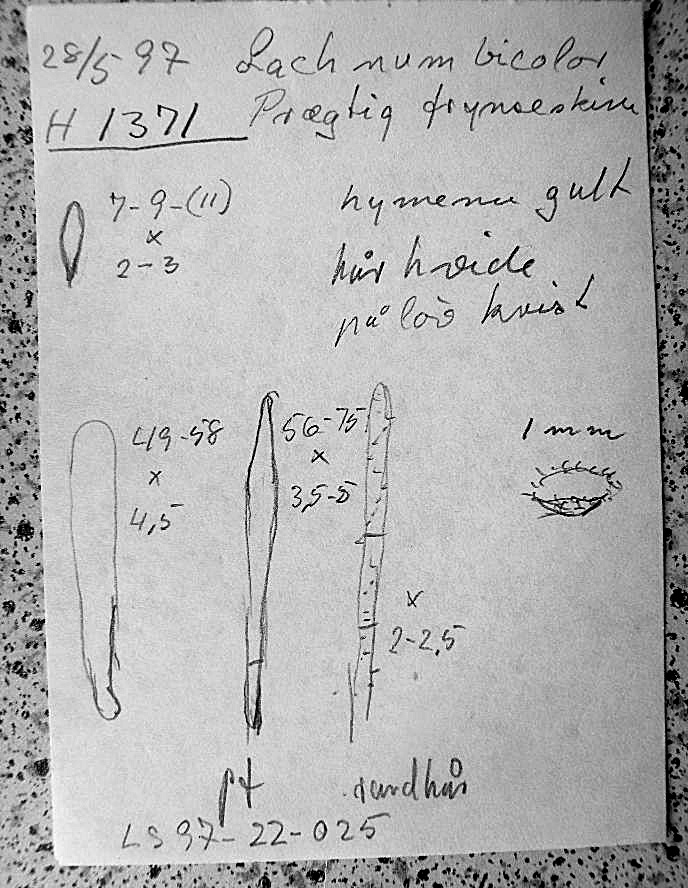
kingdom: Fungi
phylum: Ascomycota
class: Leotiomycetes
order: Helotiales
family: Lachnaceae
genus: Capitotricha
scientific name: Capitotricha bicolor
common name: prægtig frynseskive
